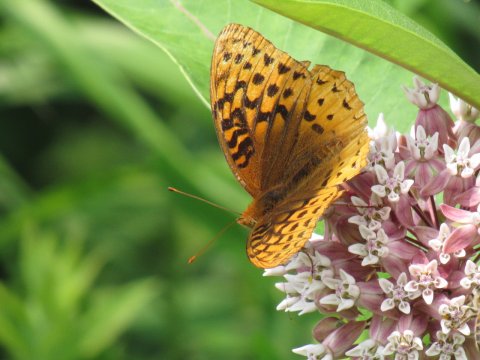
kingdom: Animalia
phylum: Arthropoda
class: Insecta
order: Lepidoptera
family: Nymphalidae
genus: Speyeria
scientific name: Speyeria cybele
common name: Great Spangled Fritillary
